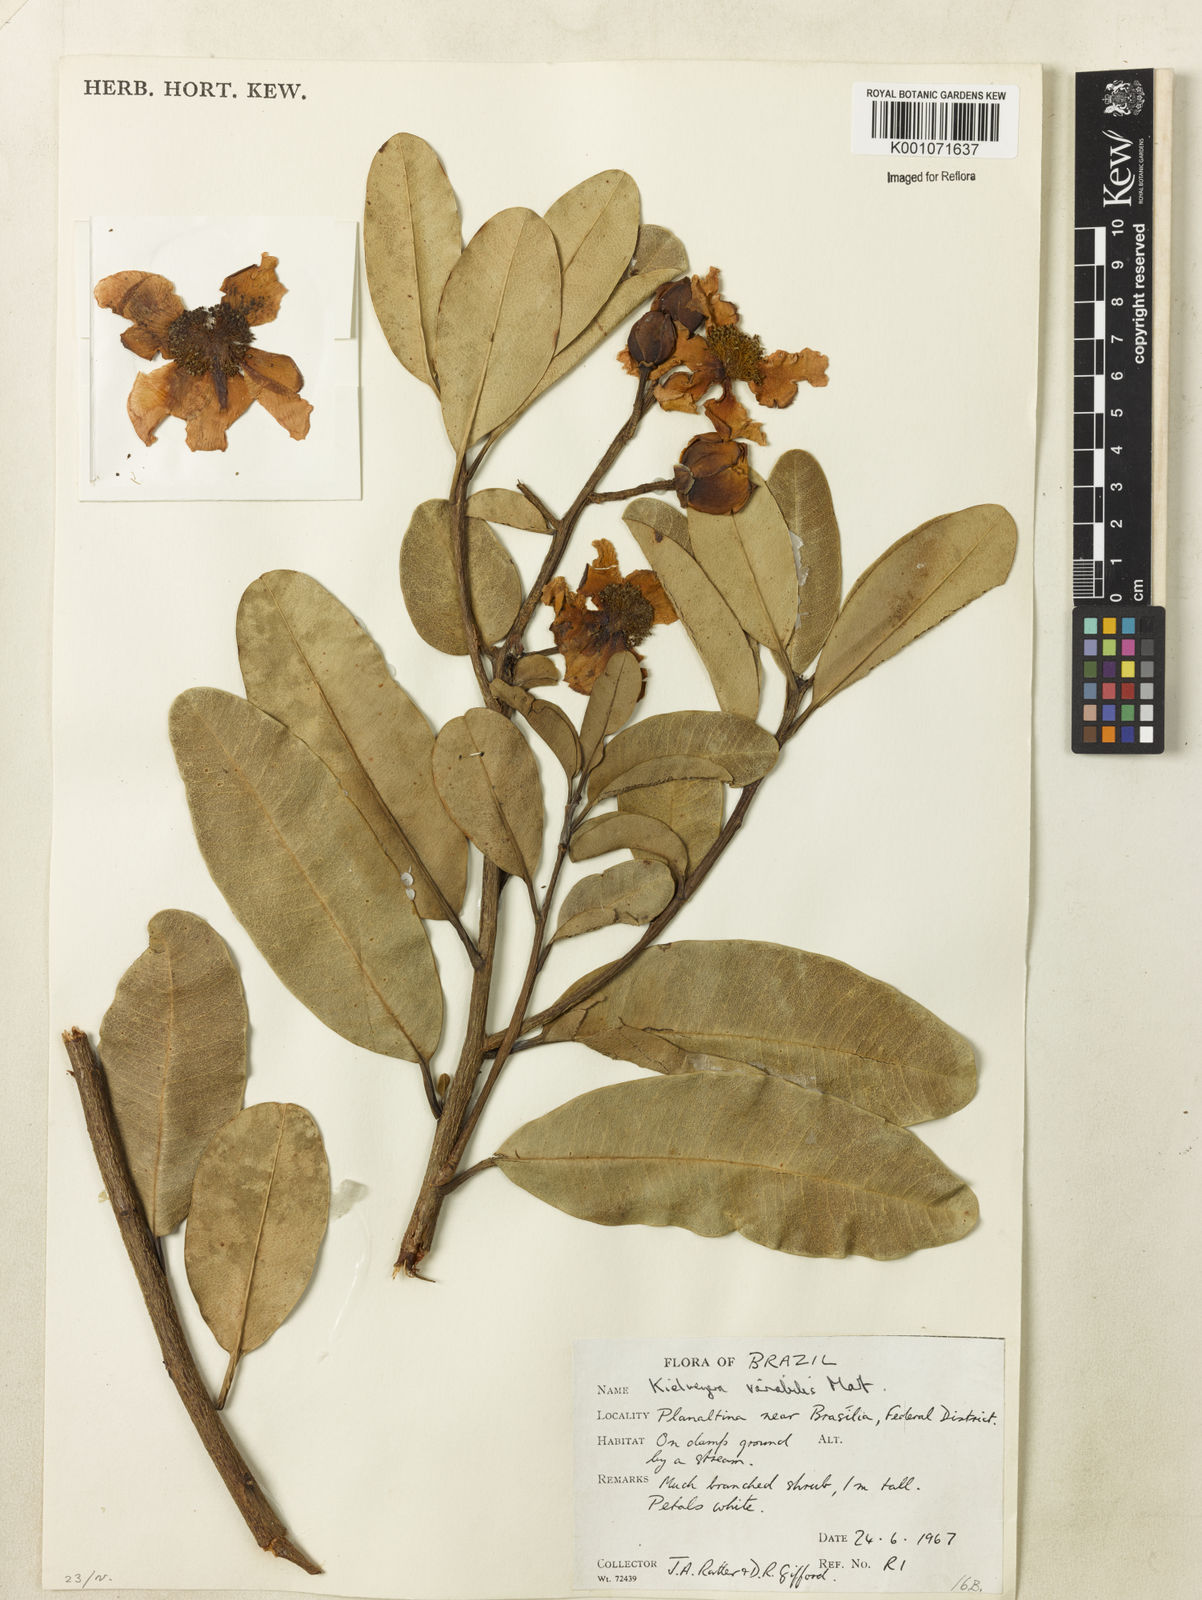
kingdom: Plantae
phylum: Tracheophyta
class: Magnoliopsida
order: Malpighiales
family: Calophyllaceae
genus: Kielmeyera
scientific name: Kielmeyera variabilis
